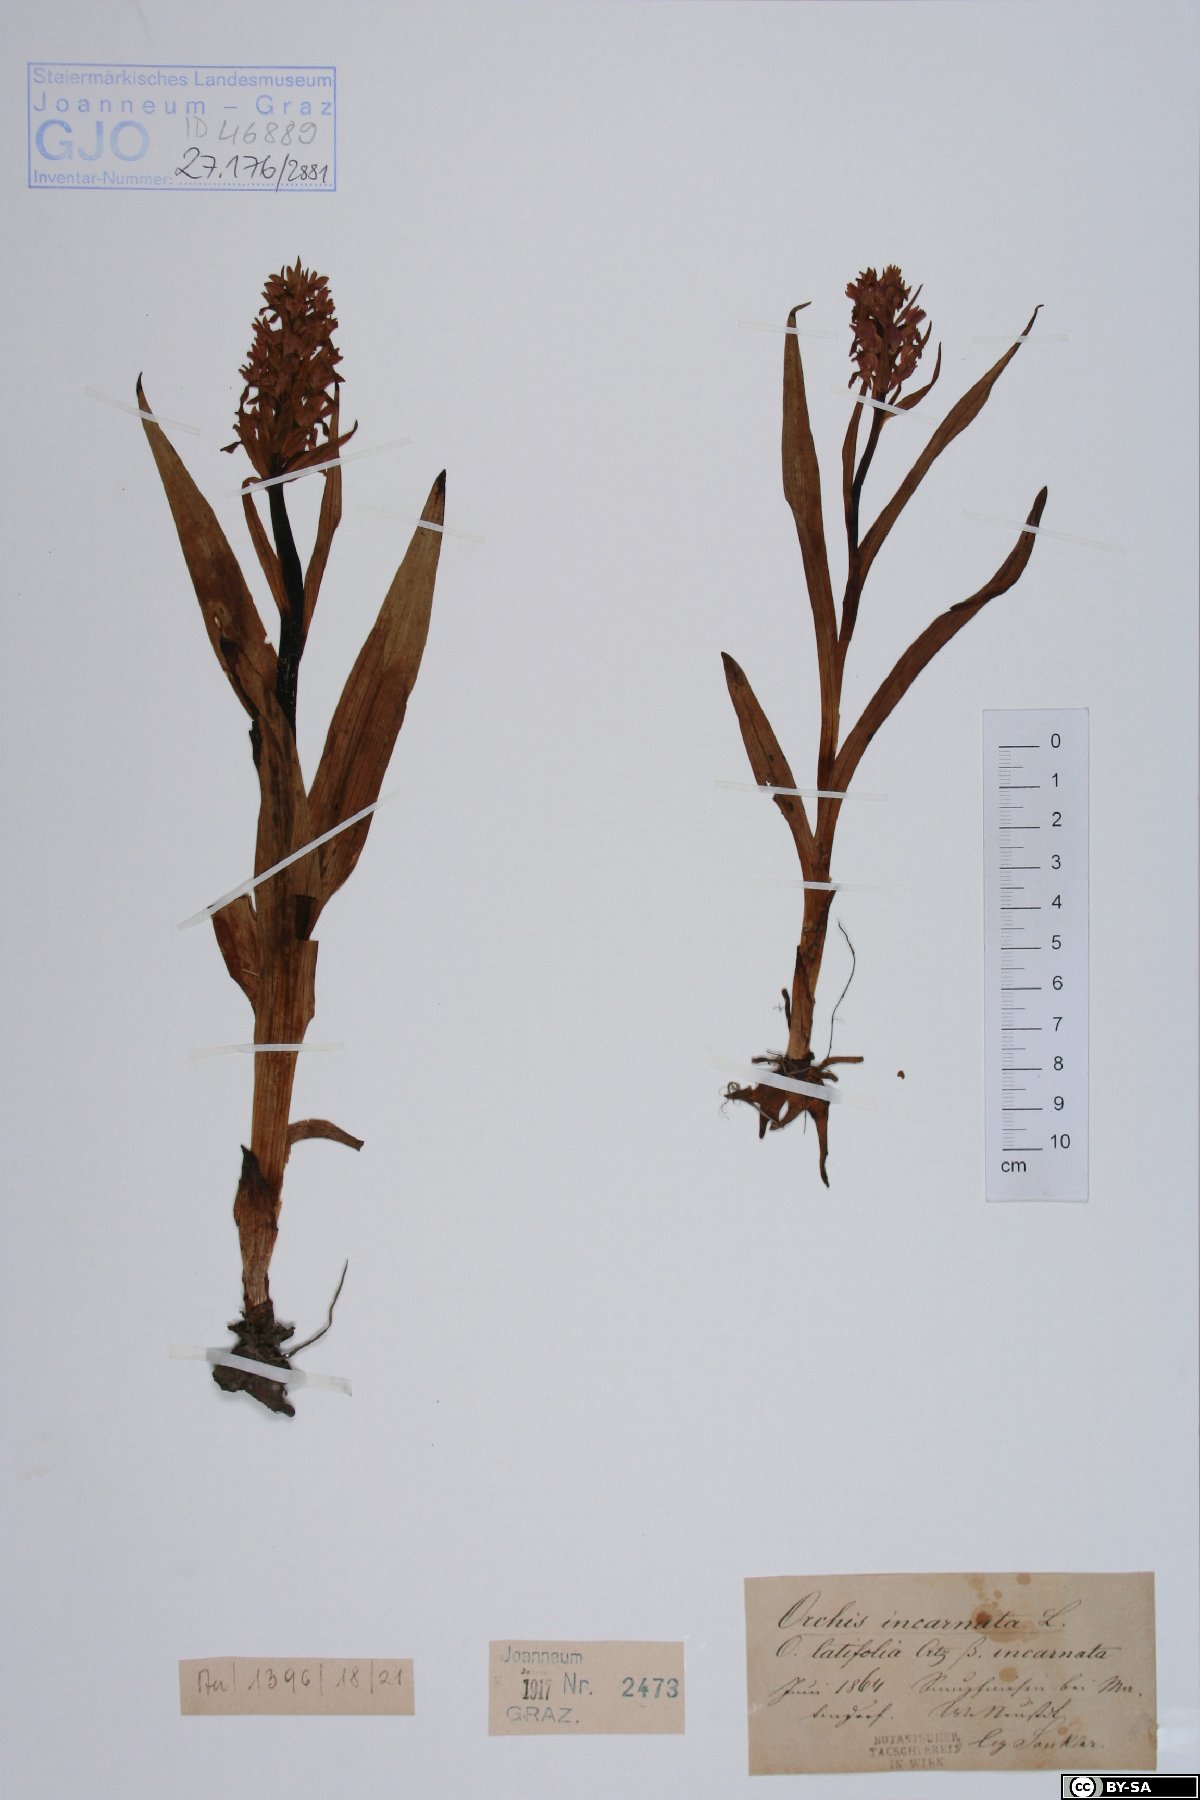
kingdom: Plantae
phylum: Tracheophyta
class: Liliopsida
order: Asparagales
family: Orchidaceae
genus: Dactylorhiza
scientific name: Dactylorhiza incarnata
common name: Early marsh-orchid
